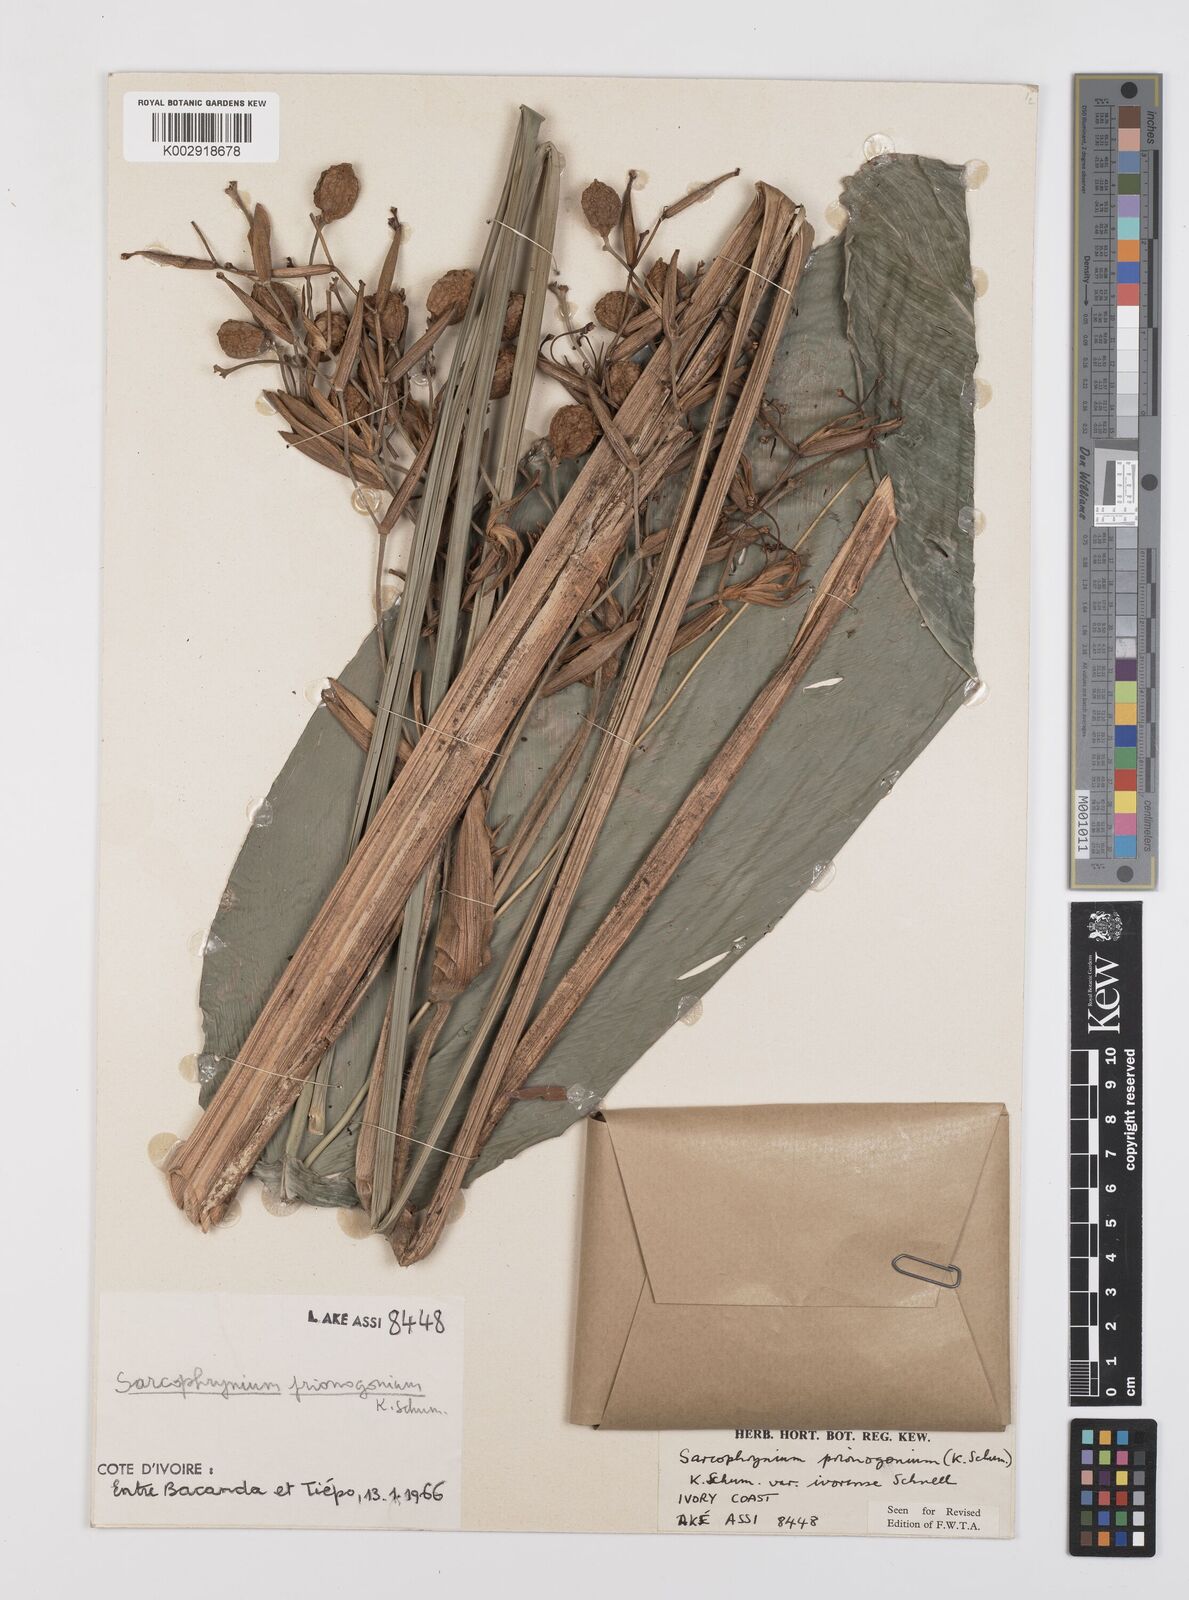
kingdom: Plantae
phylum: Tracheophyta
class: Liliopsida
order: Zingiberales
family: Marantaceae
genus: Sarcophrynium
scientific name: Sarcophrynium prionogonium
